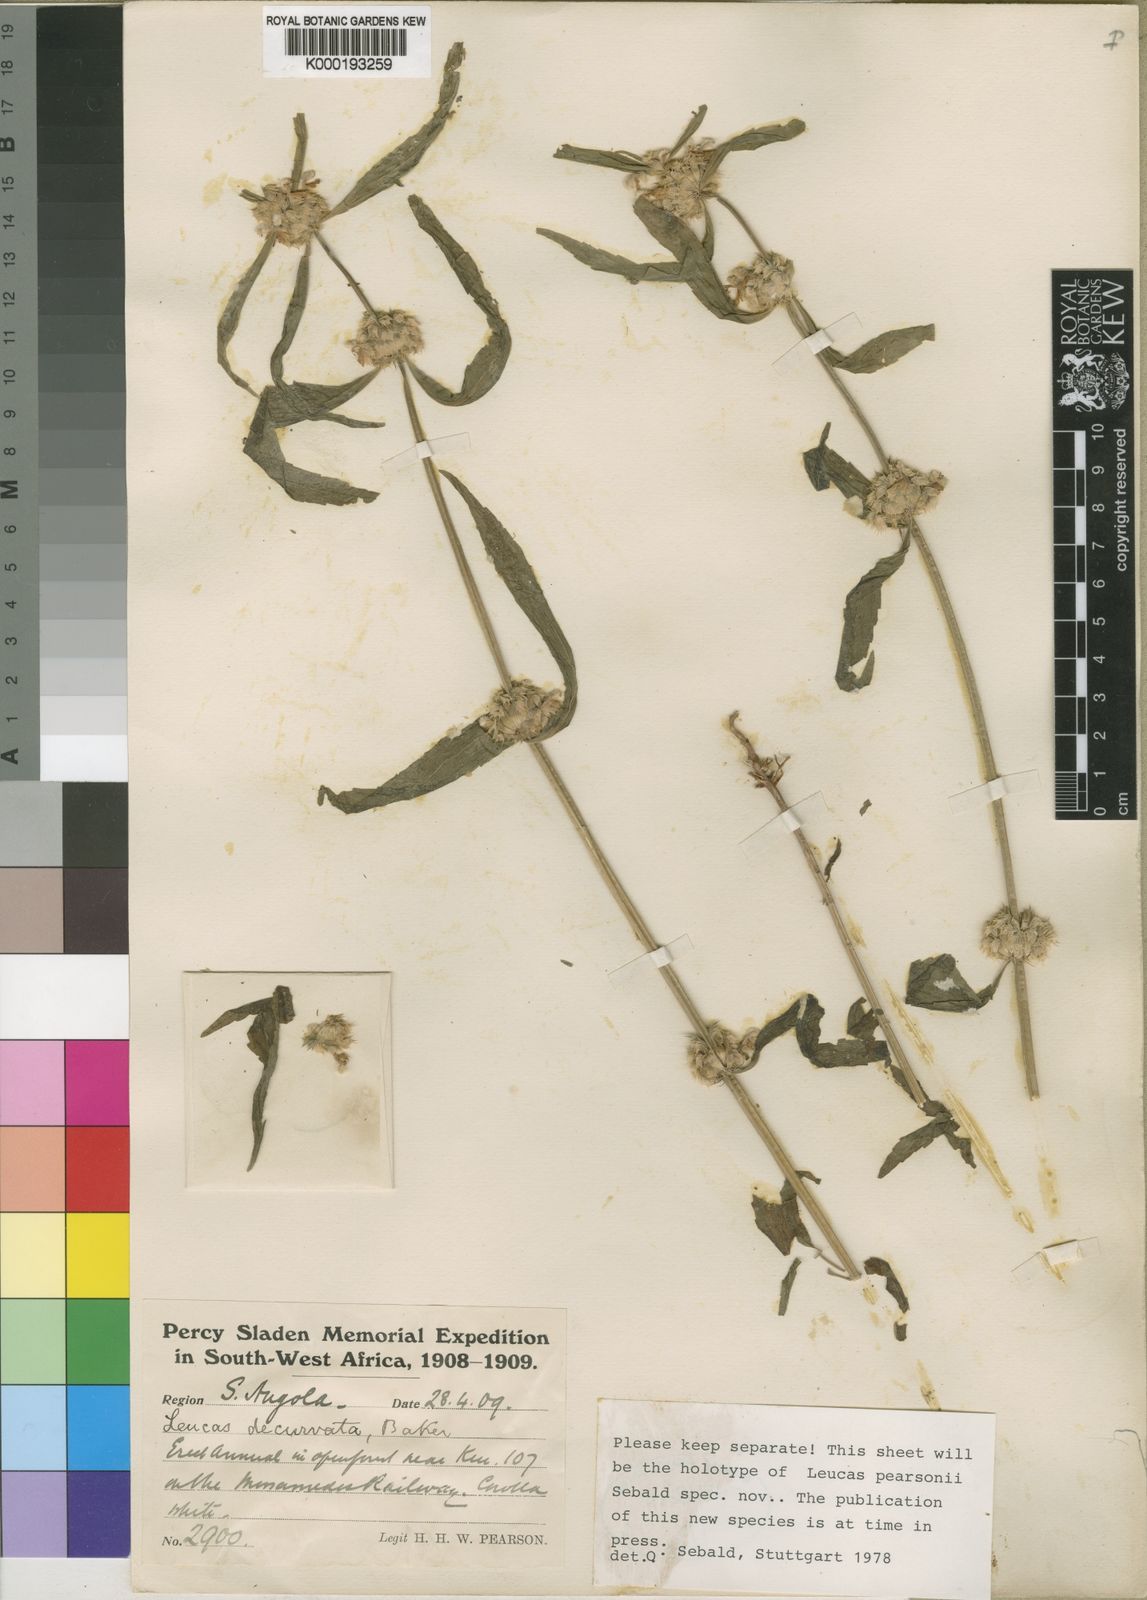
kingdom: Plantae
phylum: Tracheophyta
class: Magnoliopsida
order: Lamiales
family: Lamiaceae
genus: Leucas
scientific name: Leucas pearsonii
